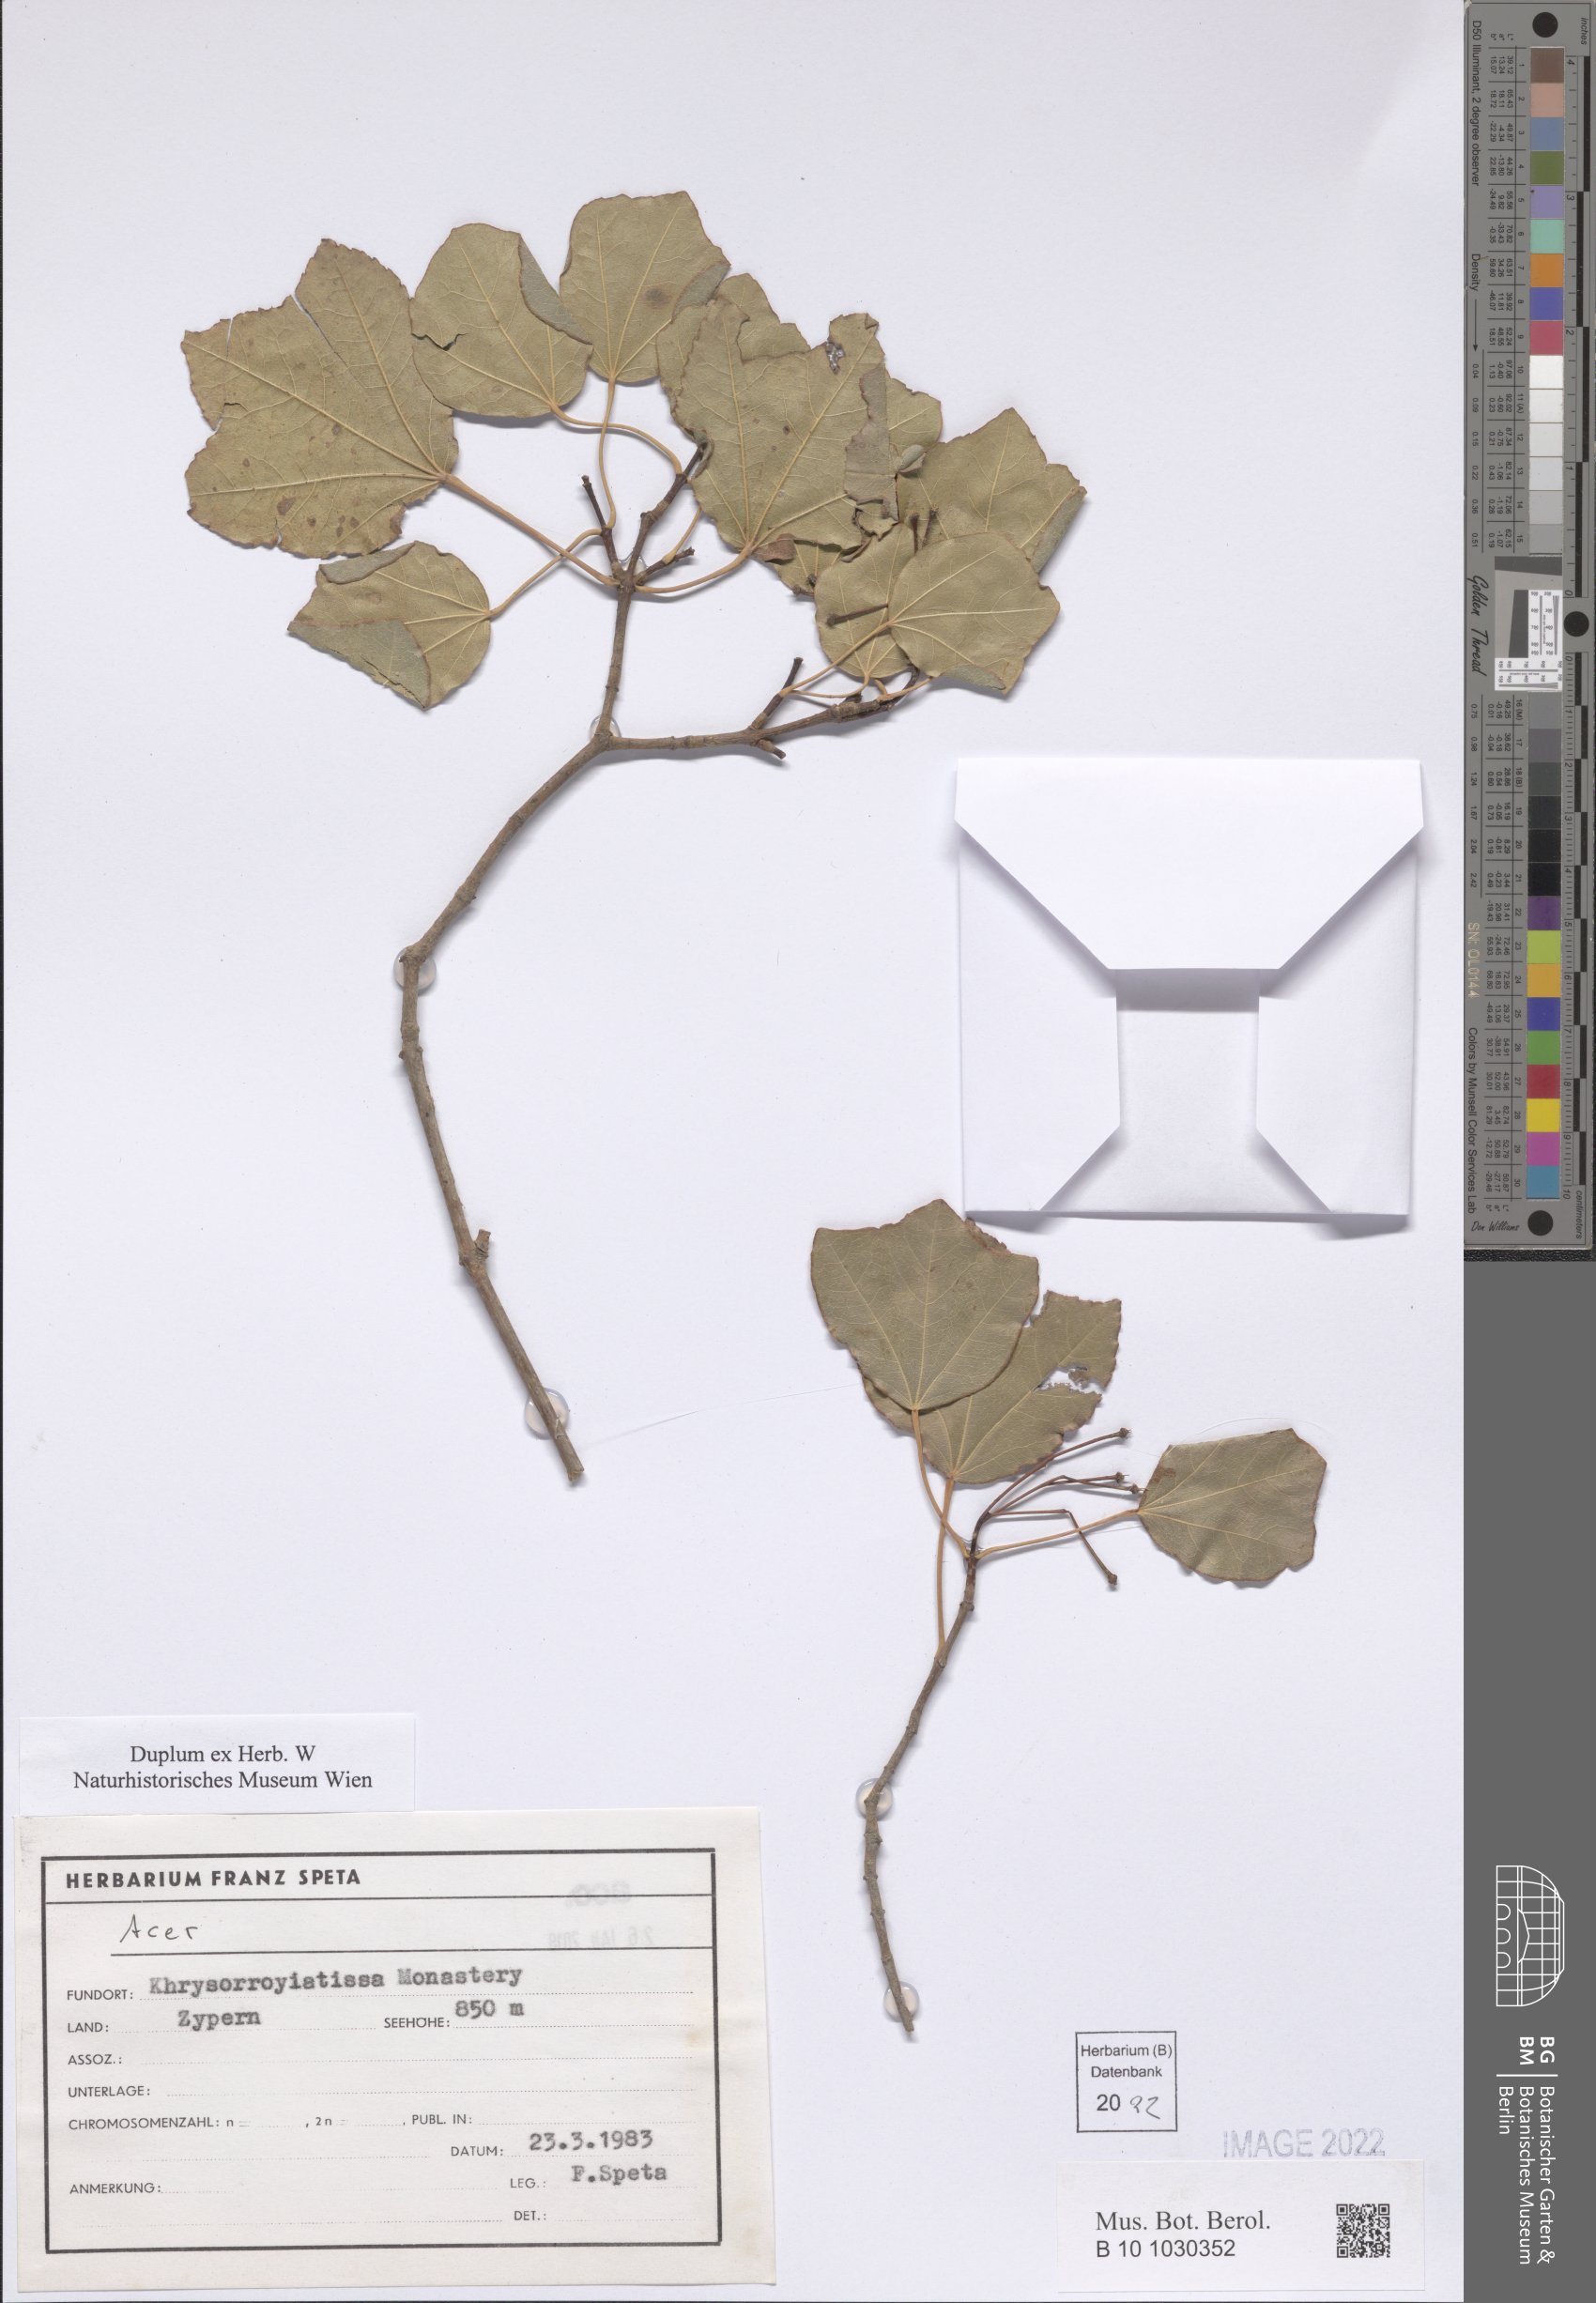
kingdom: Plantae
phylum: Tracheophyta
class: Magnoliopsida
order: Sapindales
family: Sapindaceae
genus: Acer
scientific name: Acer
